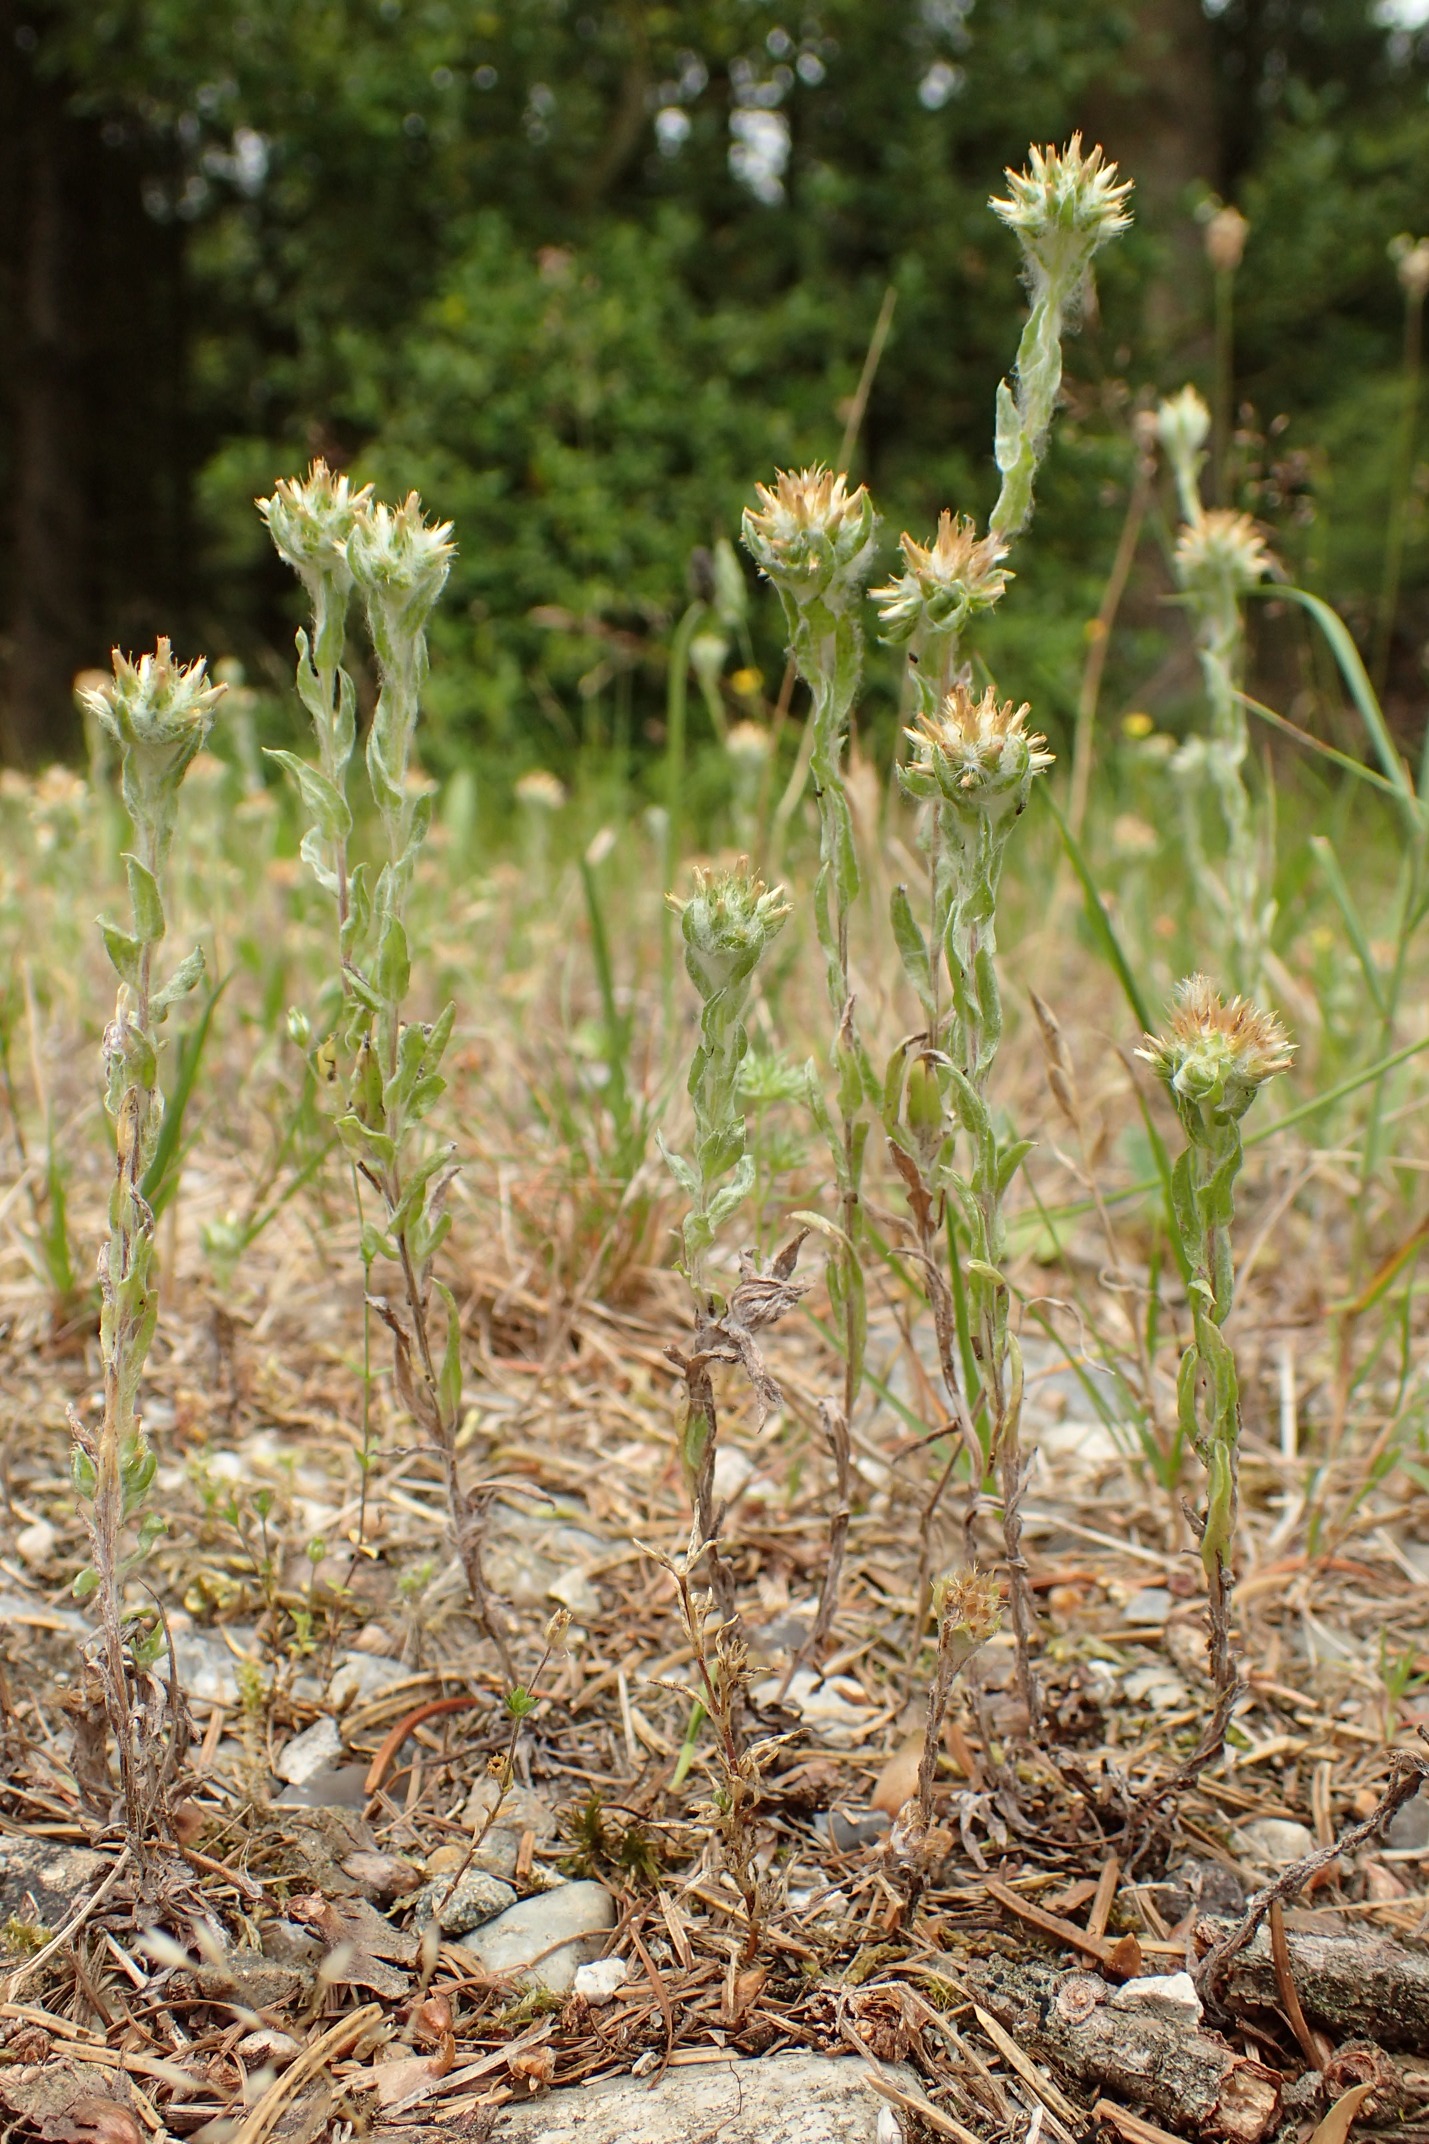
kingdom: Plantae
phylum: Tracheophyta
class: Magnoliopsida
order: Asterales
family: Asteraceae
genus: Filago
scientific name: Filago germanica
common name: Kugle-museurt
